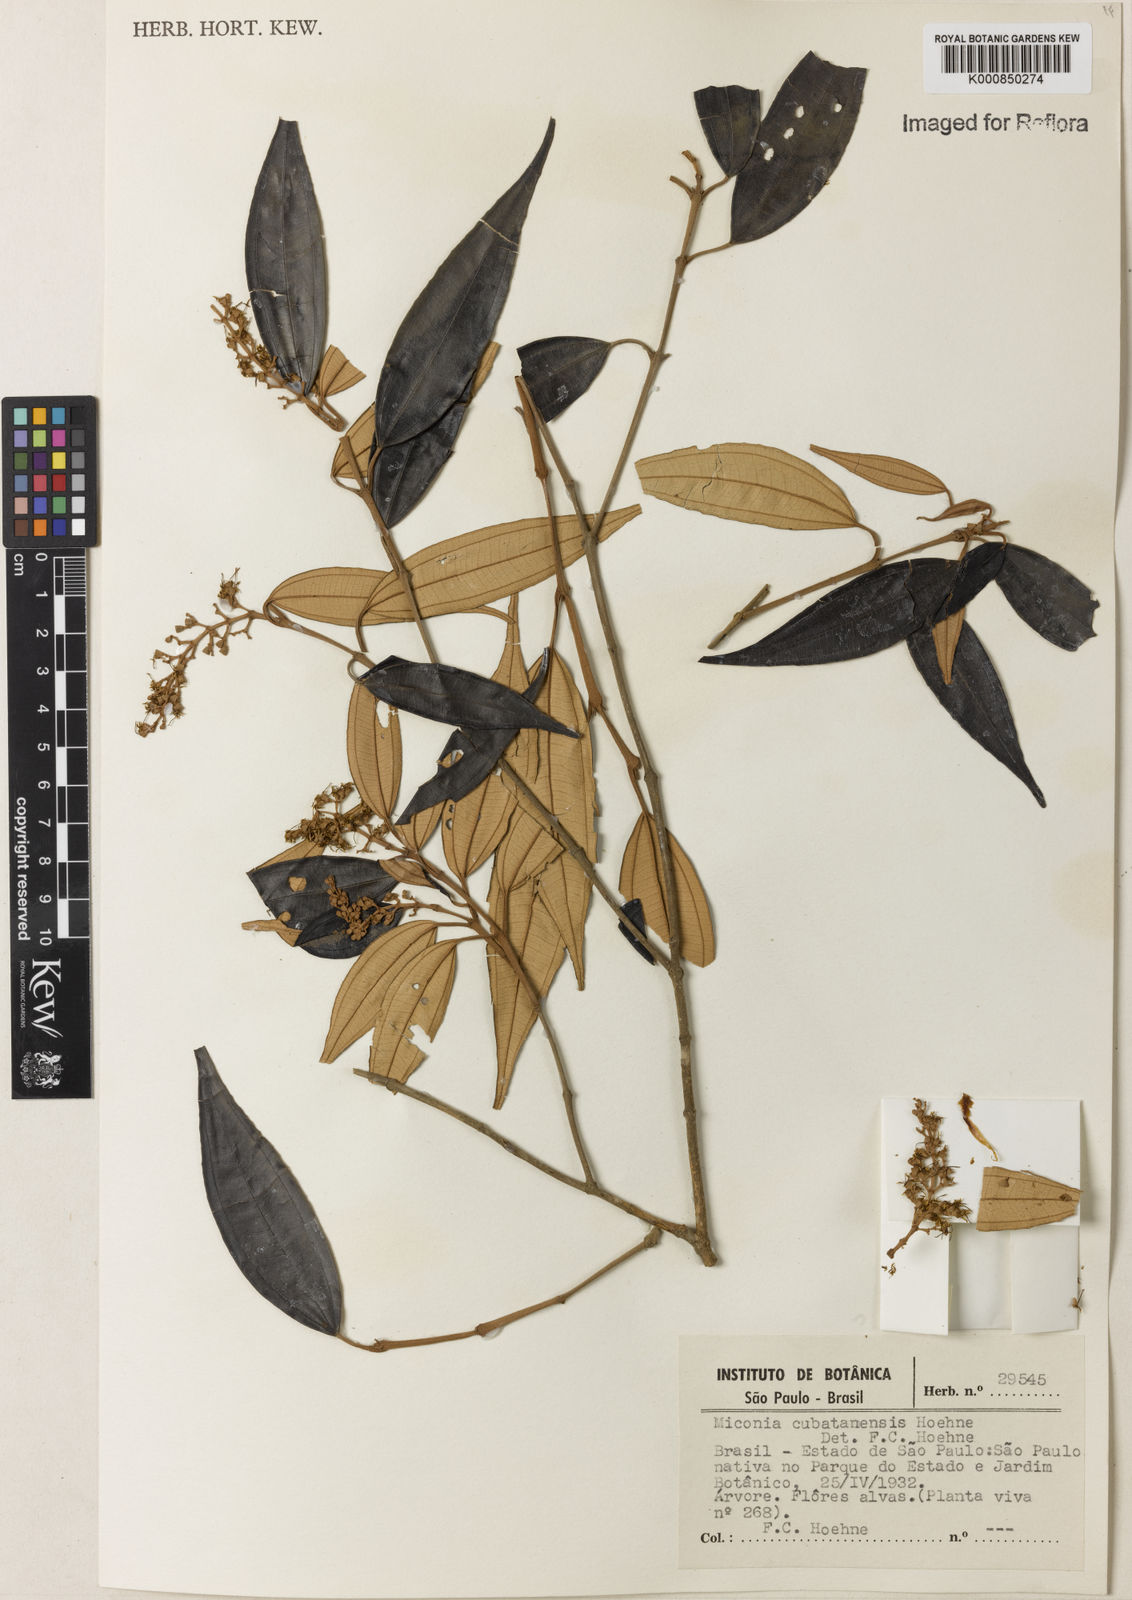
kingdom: Plantae
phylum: Tracheophyta
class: Magnoliopsida
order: Myrtales
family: Melastomataceae
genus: Miconia
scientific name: Miconia cubatanensis
